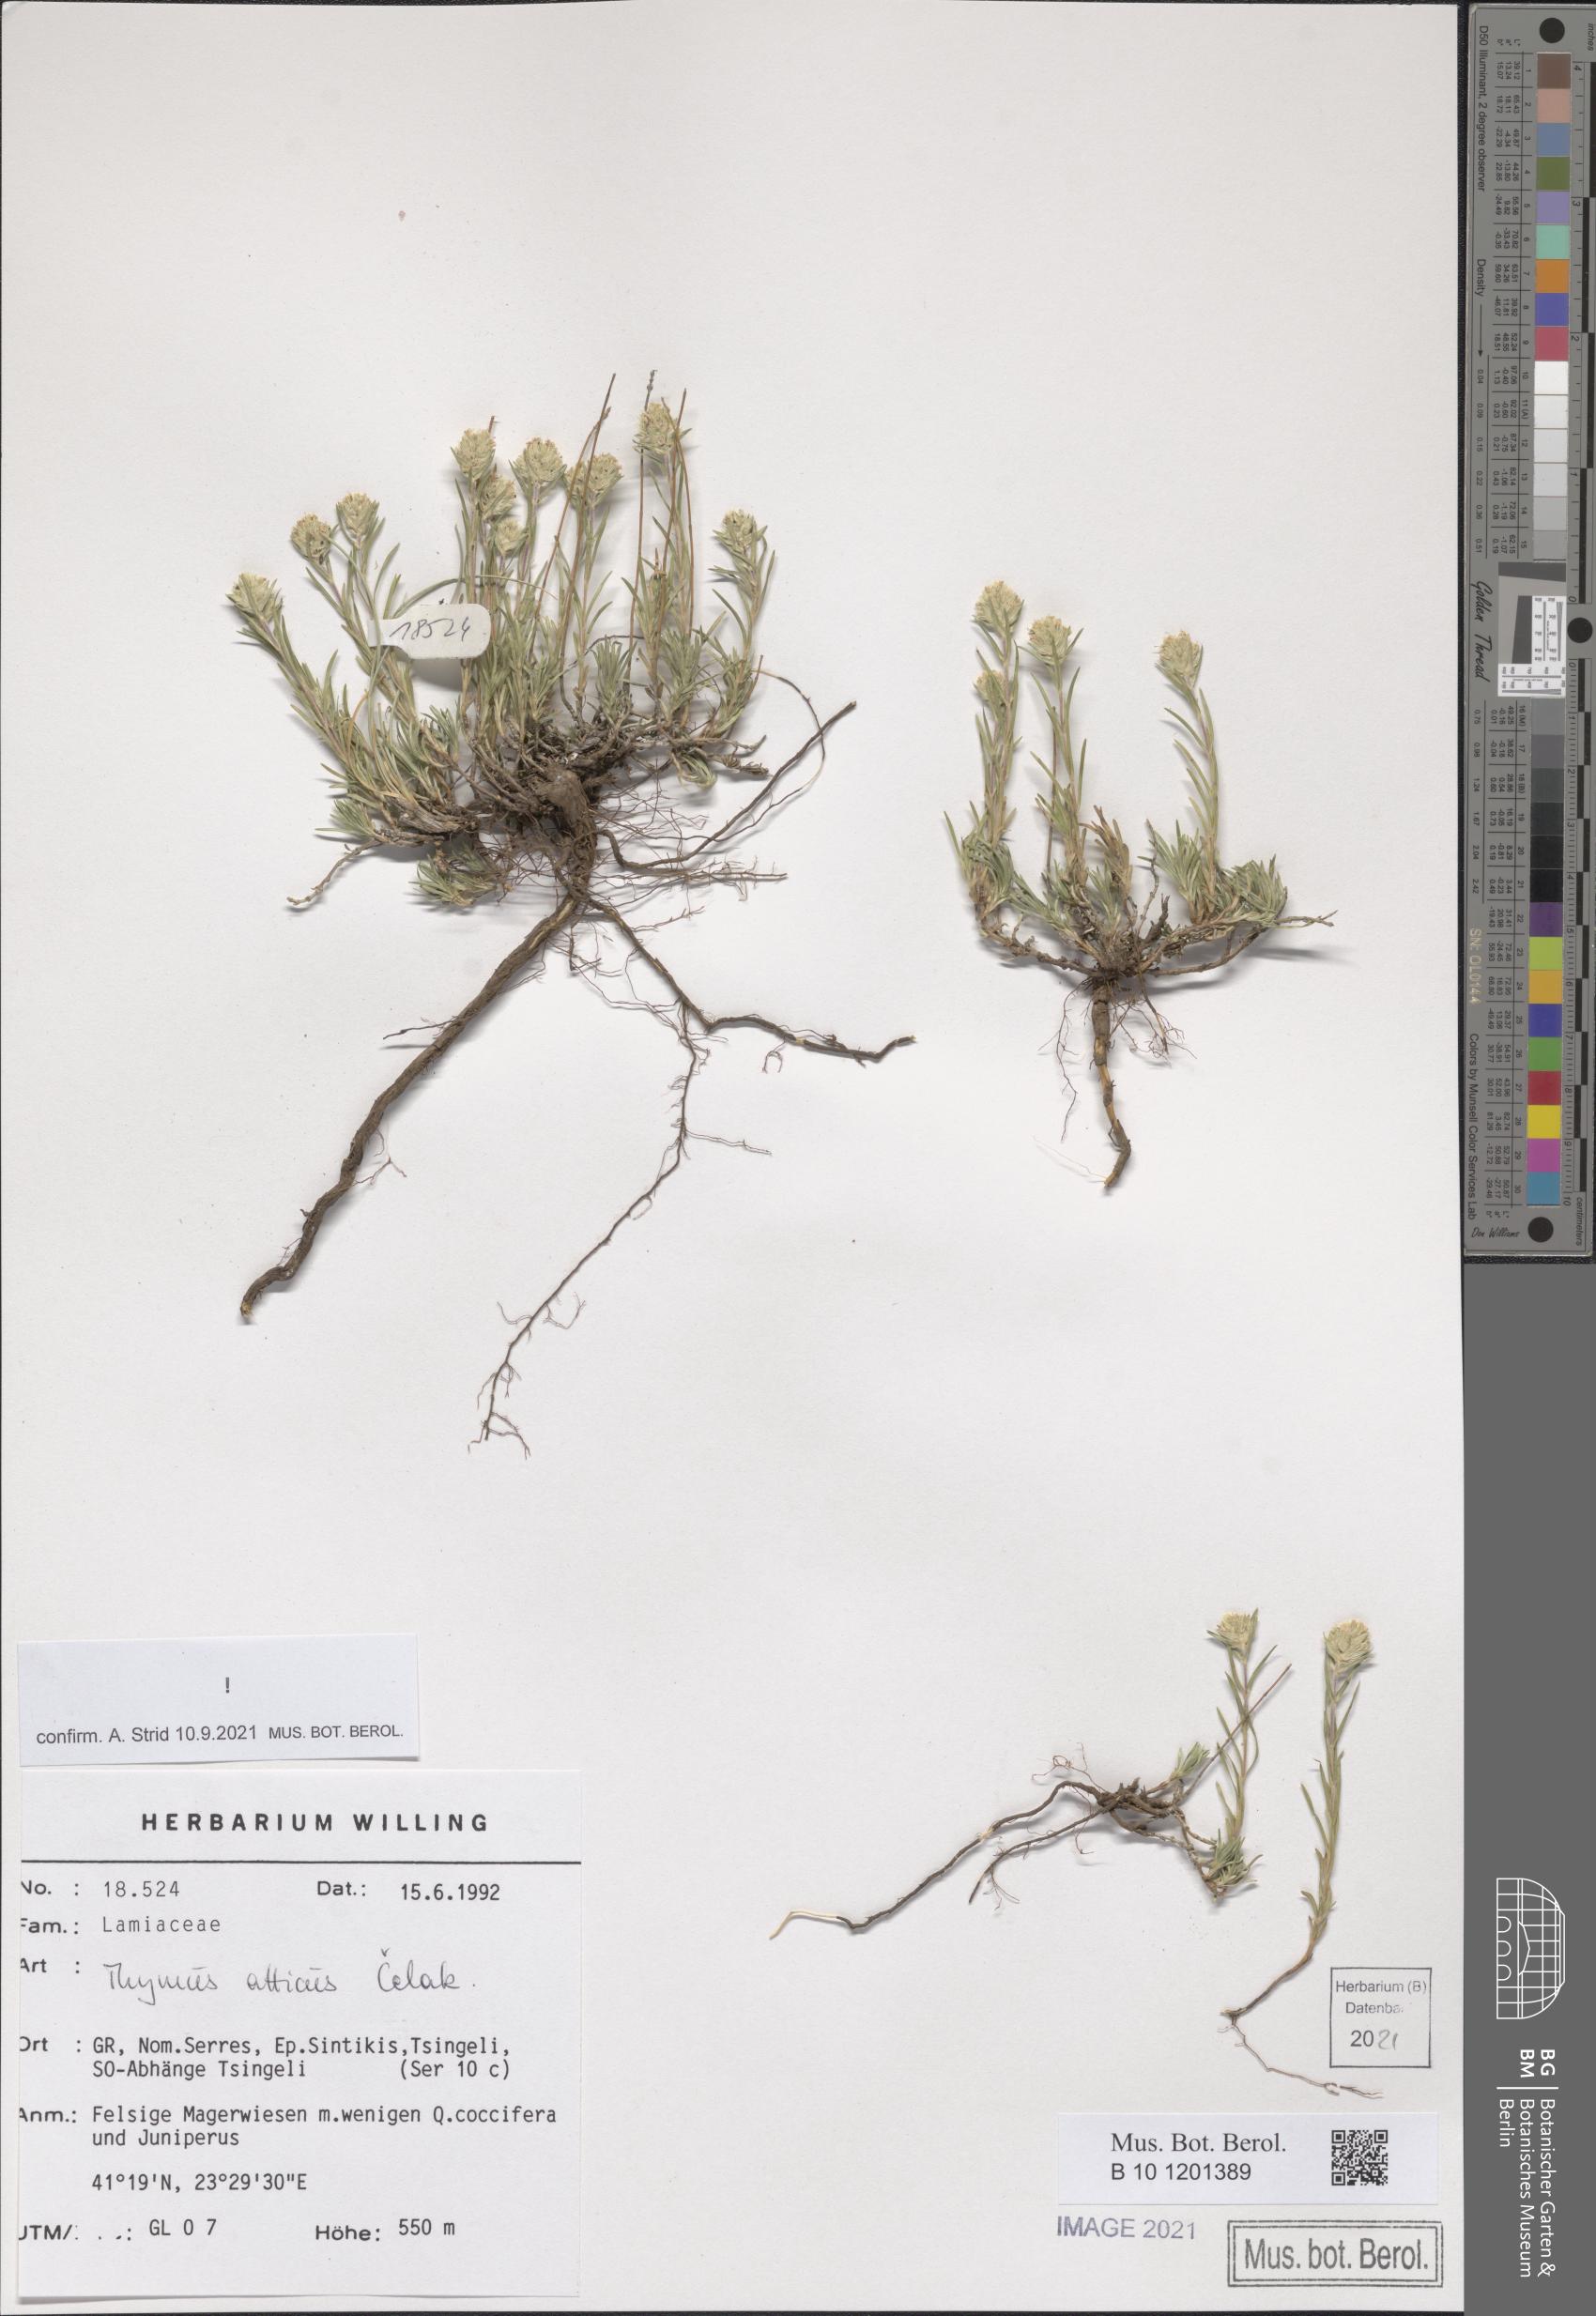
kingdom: Plantae
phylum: Tracheophyta
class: Magnoliopsida
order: Lamiales
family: Lamiaceae
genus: Thymus
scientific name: Thymus atticus
